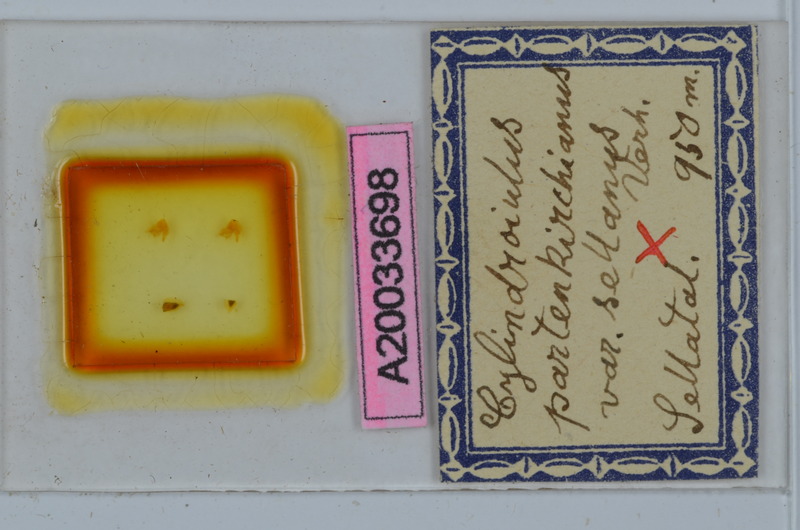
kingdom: Animalia
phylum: Arthropoda
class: Diplopoda
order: Julida
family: Julidae
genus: Cylindroiulus
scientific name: Cylindroiulus fulviceps
